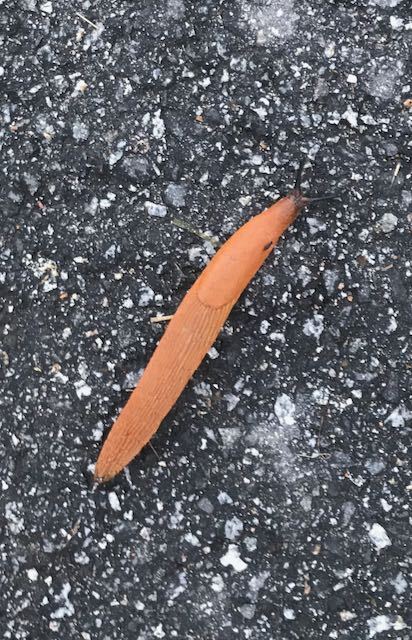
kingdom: Animalia
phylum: Mollusca
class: Gastropoda
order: Stylommatophora
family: Arionidae
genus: Arion
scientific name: Arion vulgaris
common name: Lusitanian slug
